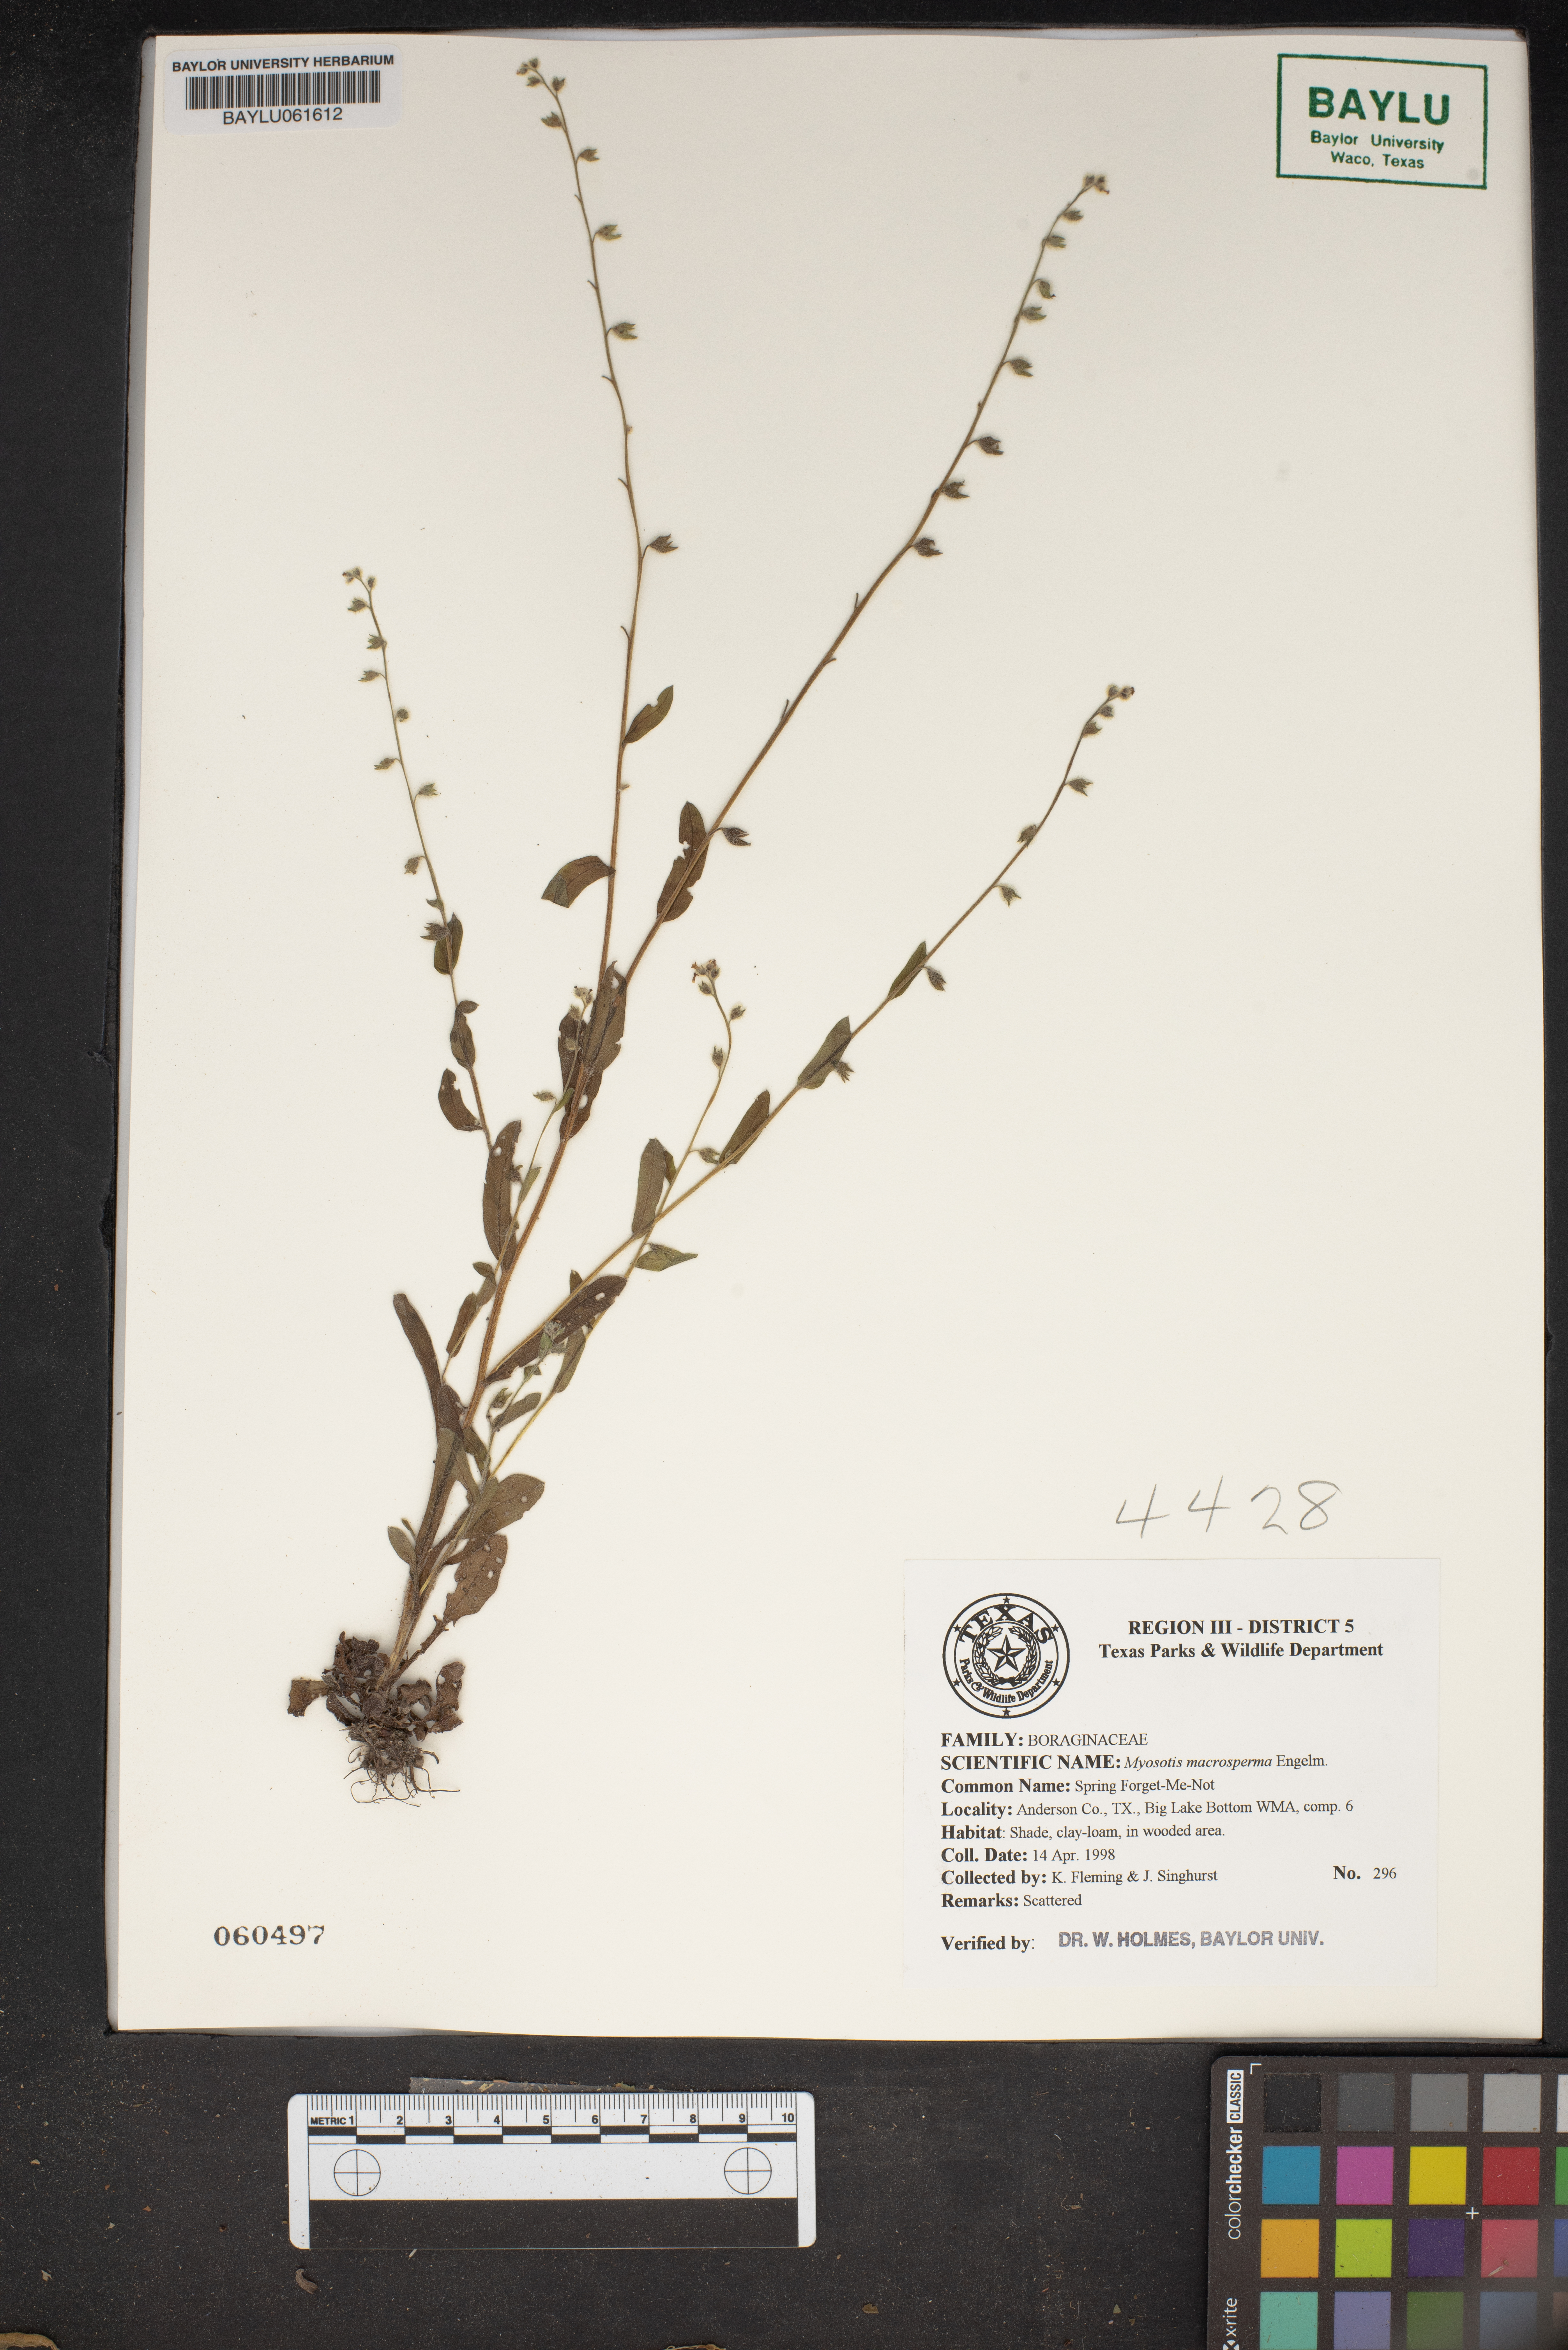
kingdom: Plantae
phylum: Tracheophyta
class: Magnoliopsida
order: Boraginales
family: Boraginaceae
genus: Myosotis
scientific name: Myosotis macrosperma
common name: Large-seed forget-me-not
